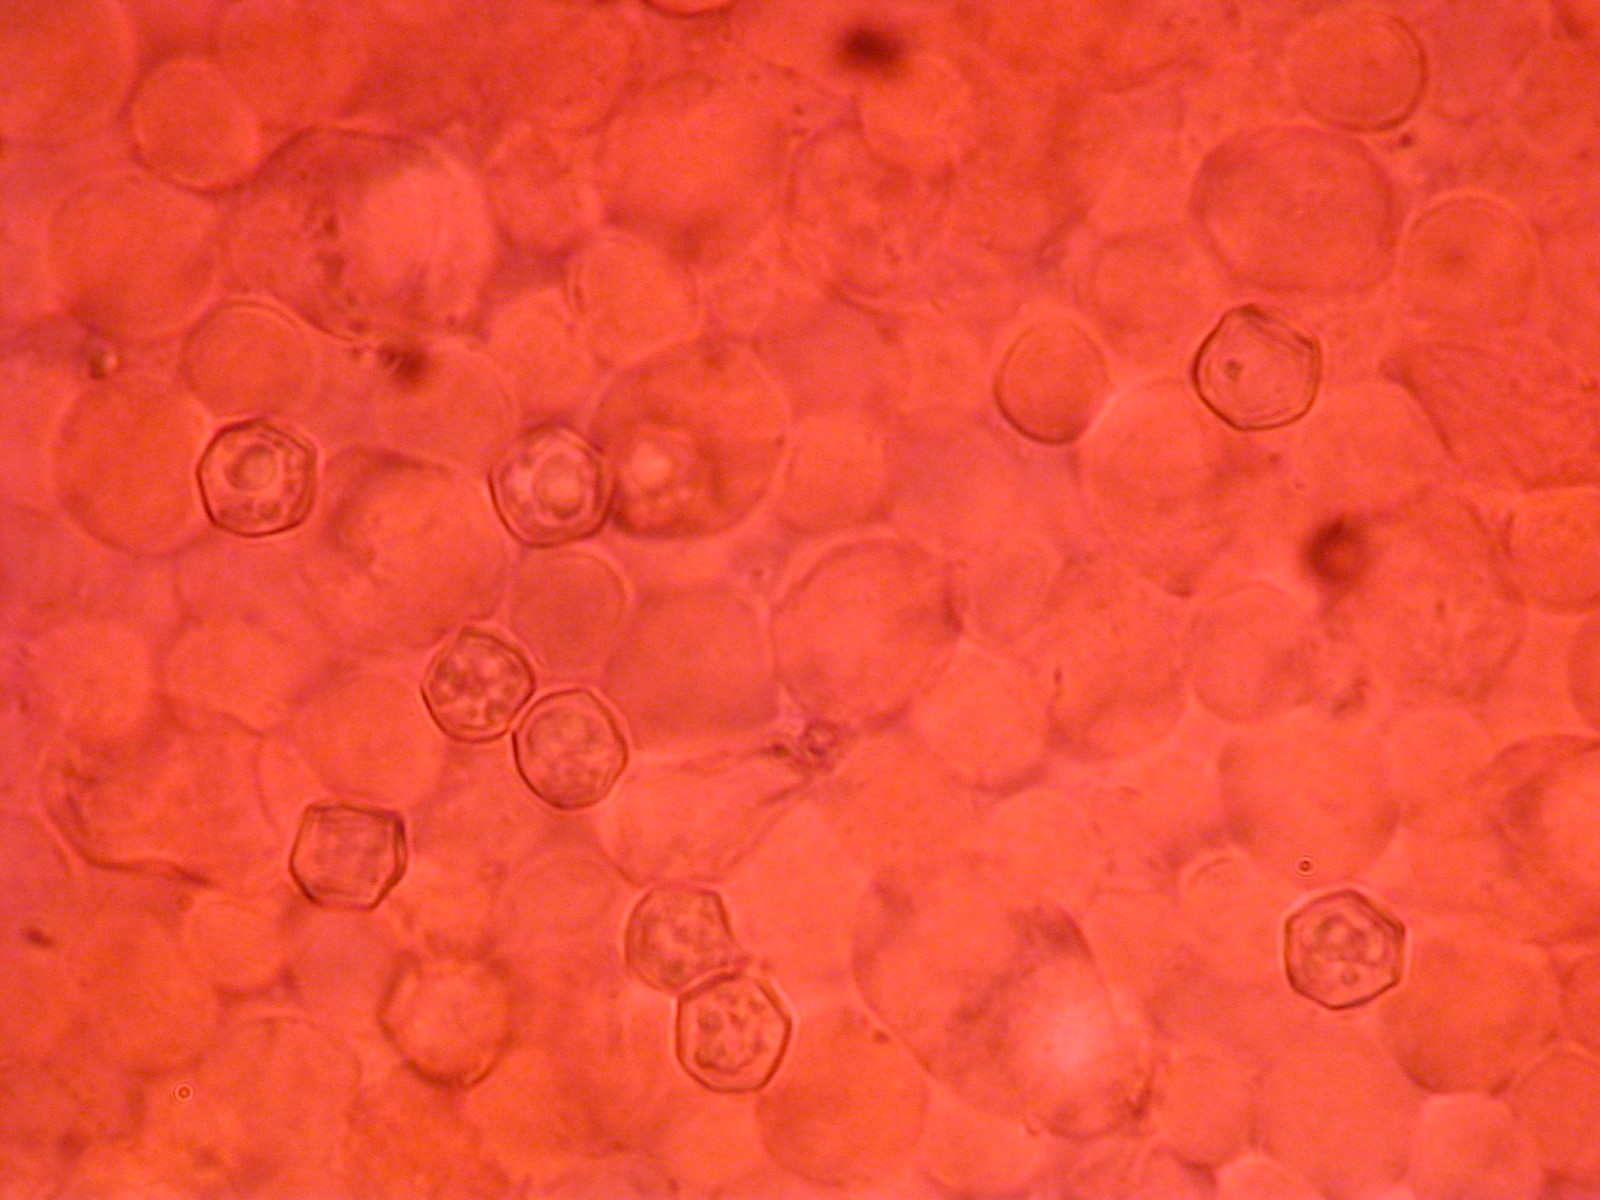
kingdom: Fungi
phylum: Basidiomycota
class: Agaricomycetes
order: Agaricales
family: Entolomataceae
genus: Entoloma
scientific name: Entoloma
